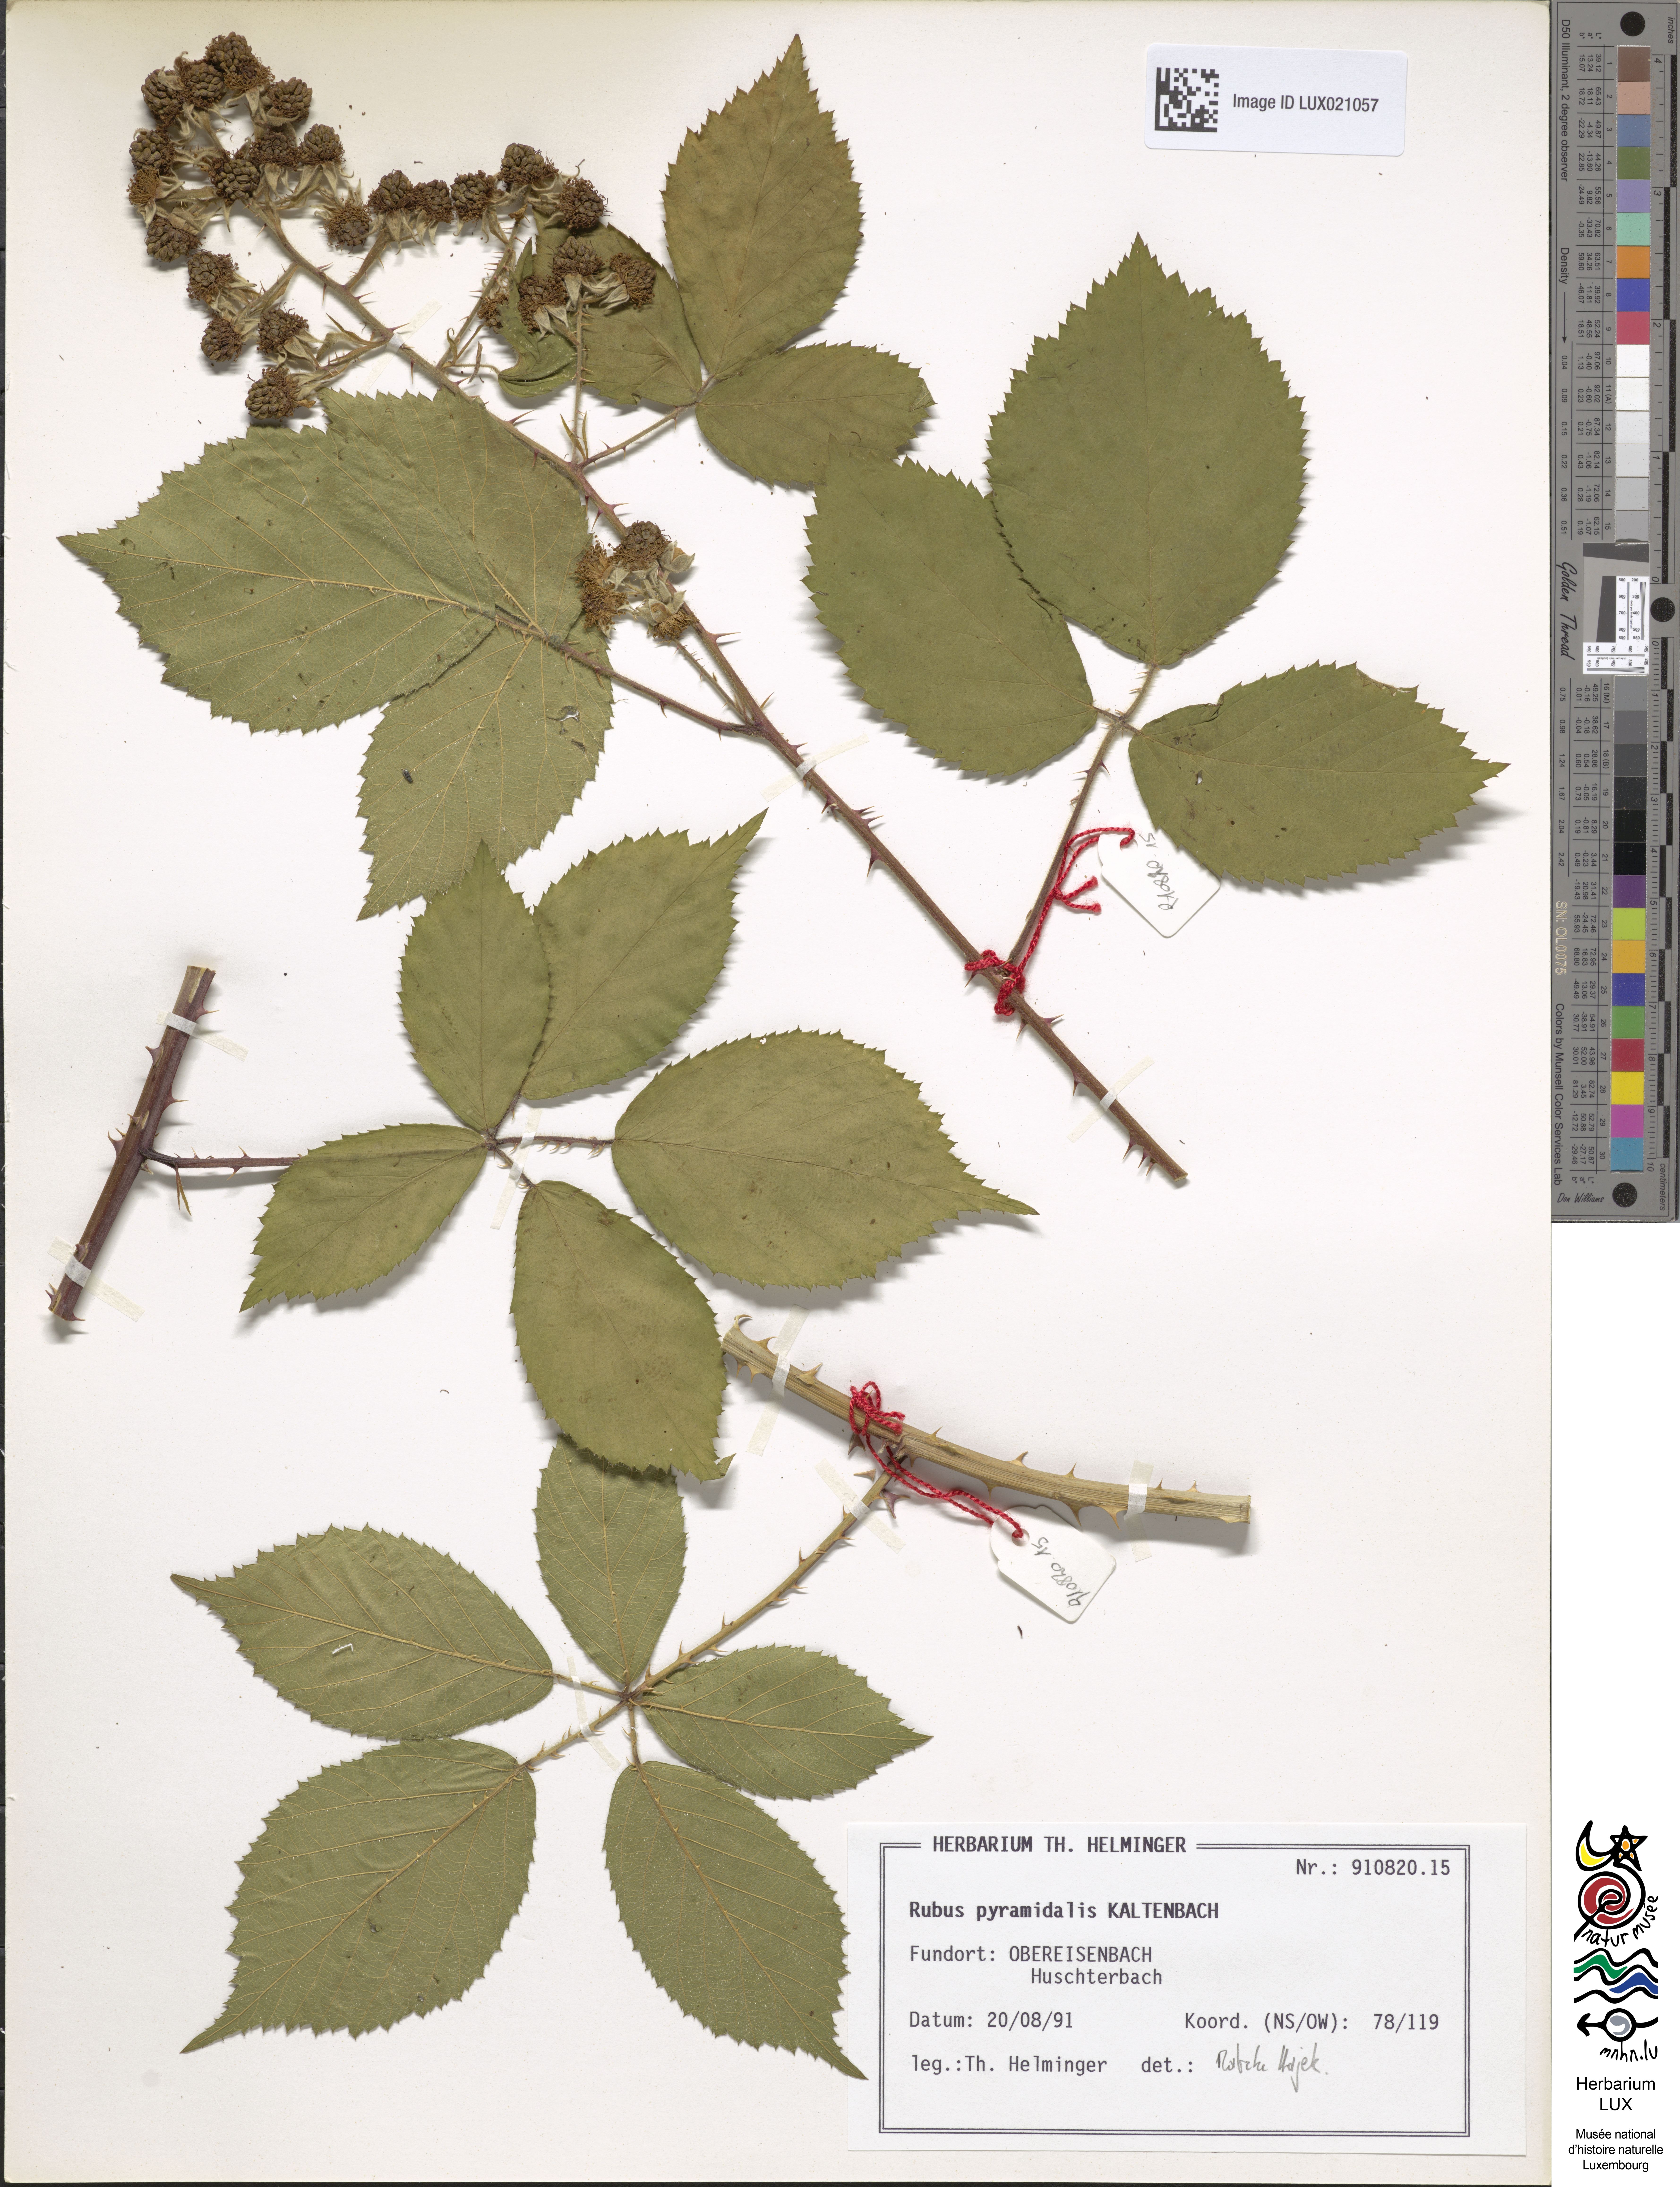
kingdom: Plantae
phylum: Tracheophyta
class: Magnoliopsida
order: Rosales
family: Rosaceae
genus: Rubus
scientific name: Rubus umbrosus
